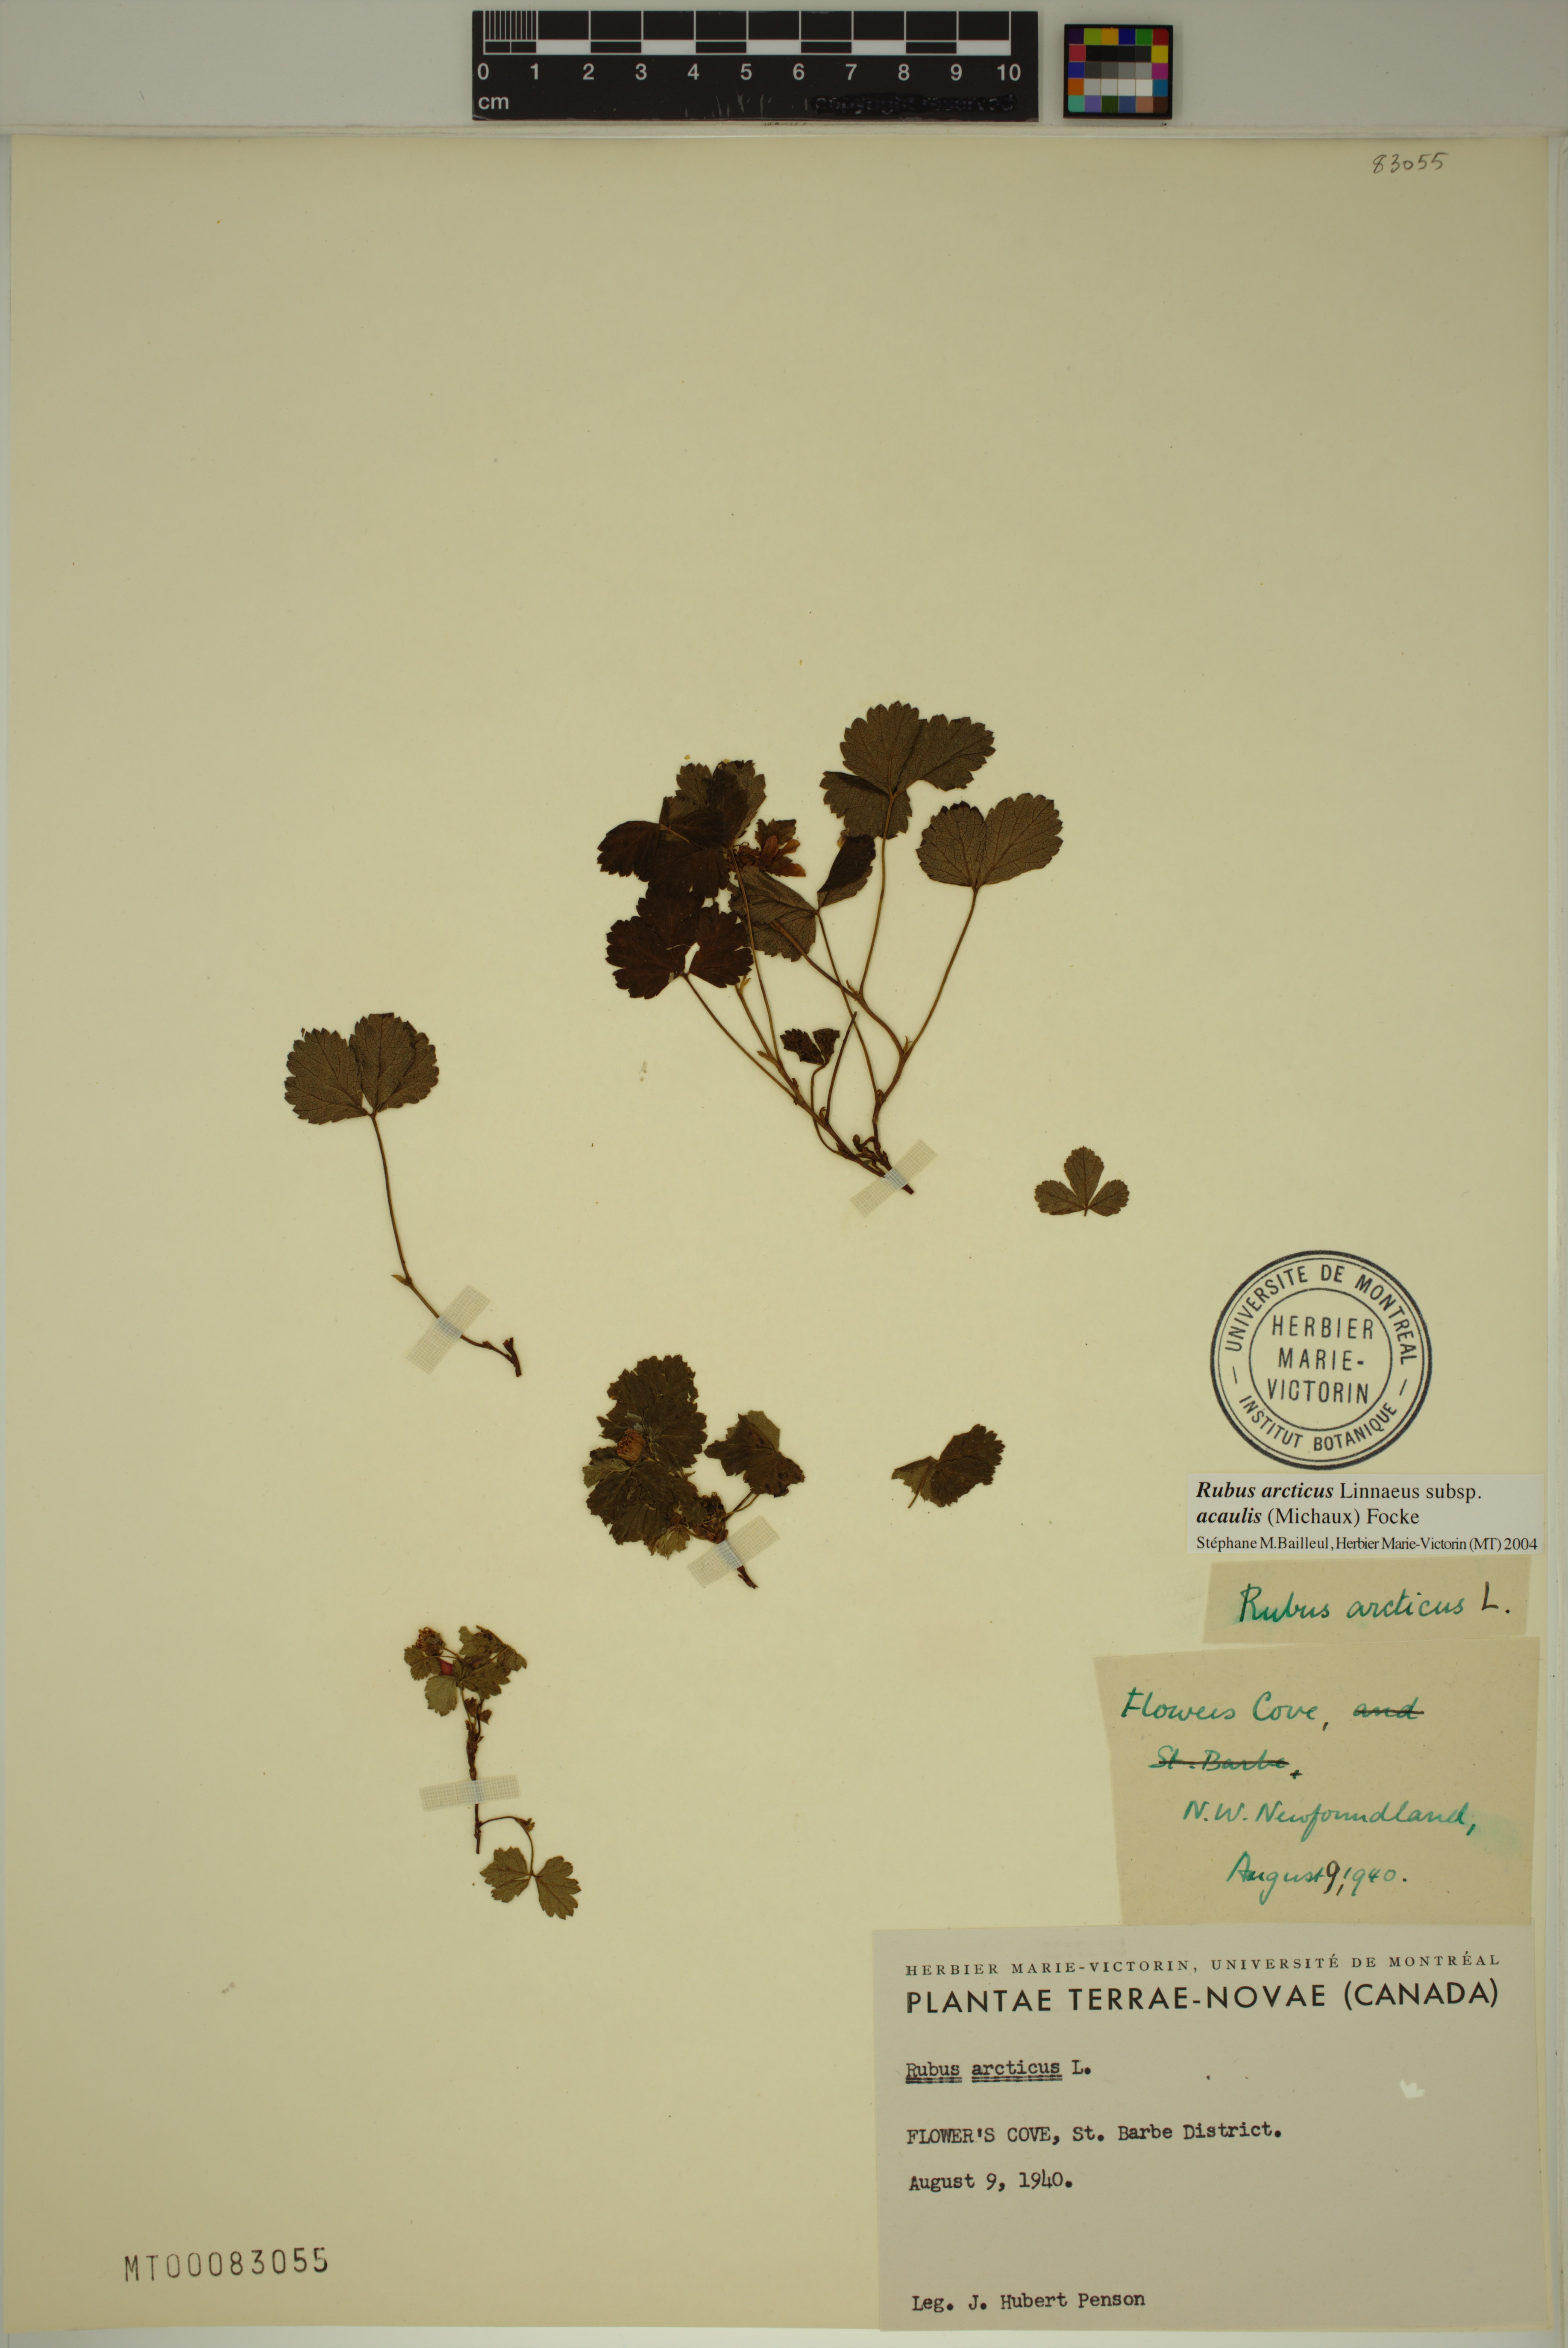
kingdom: Plantae
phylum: Tracheophyta
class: Magnoliopsida
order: Rosales
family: Rosaceae
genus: Rubus
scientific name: Rubus arcticus
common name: Arctic bramble
